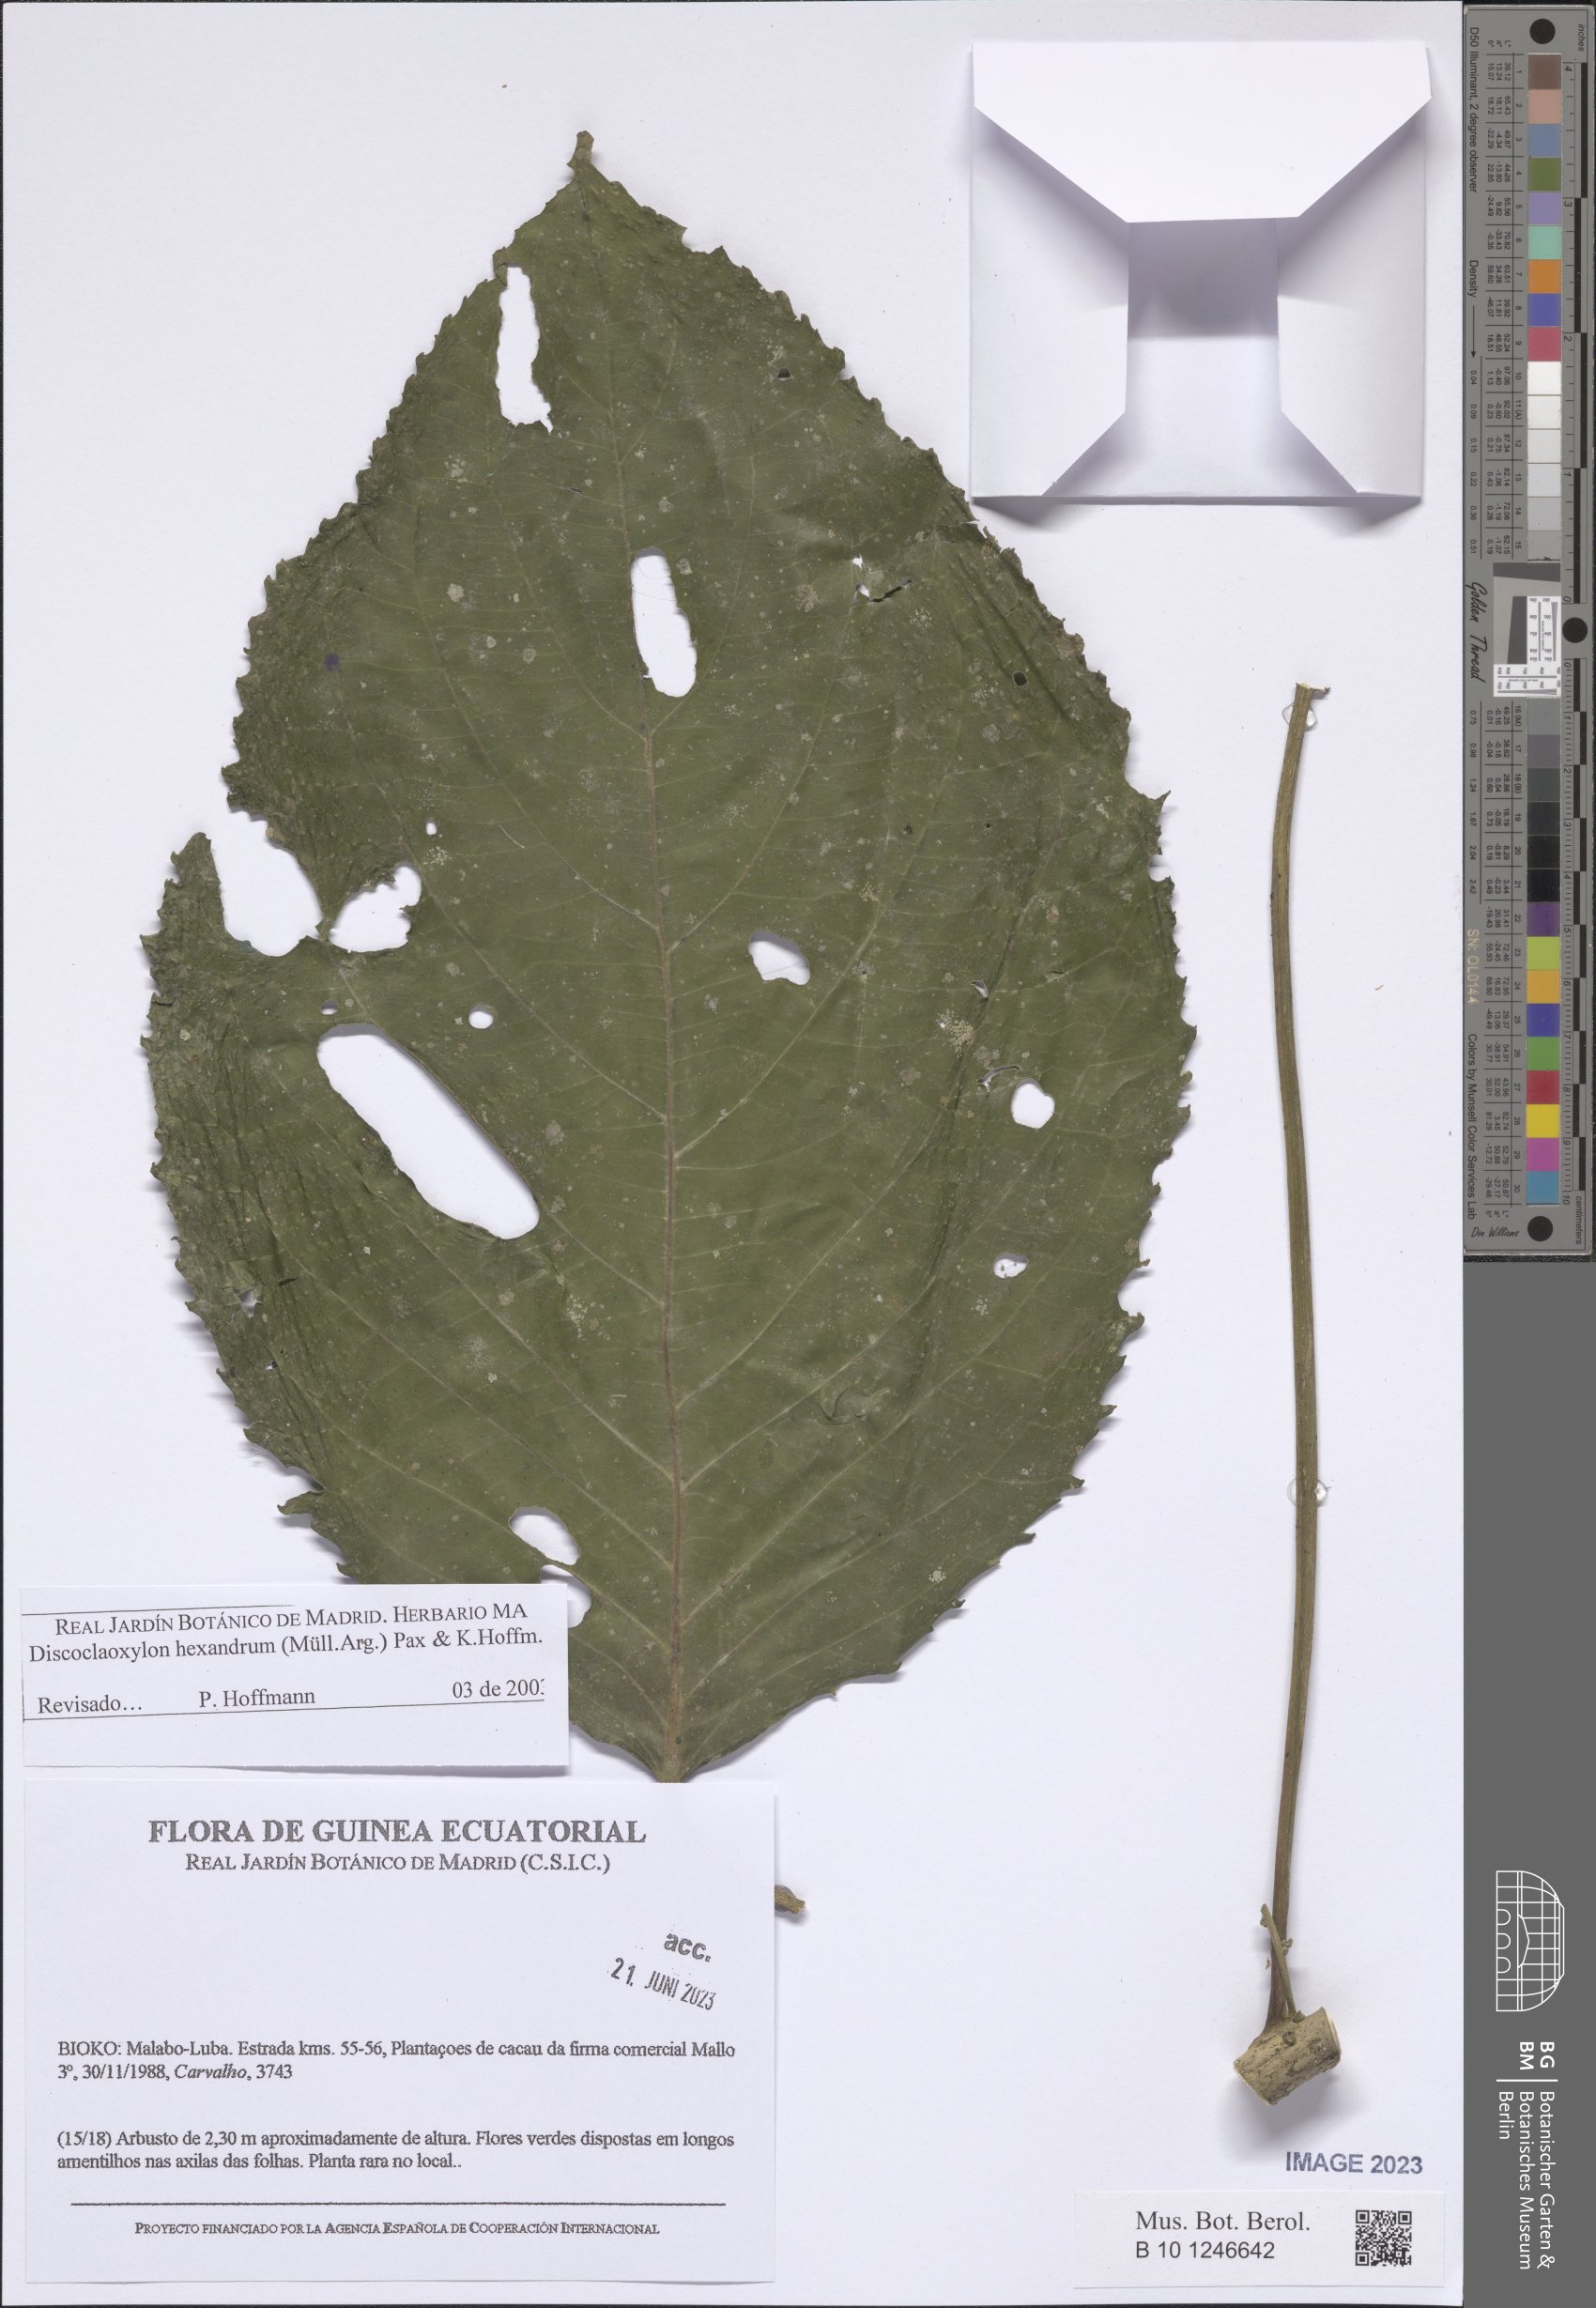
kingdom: Plantae
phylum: Tracheophyta
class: Magnoliopsida
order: Malpighiales
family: Euphorbiaceae
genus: Discoclaoxylon
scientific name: Discoclaoxylon hexandrum
